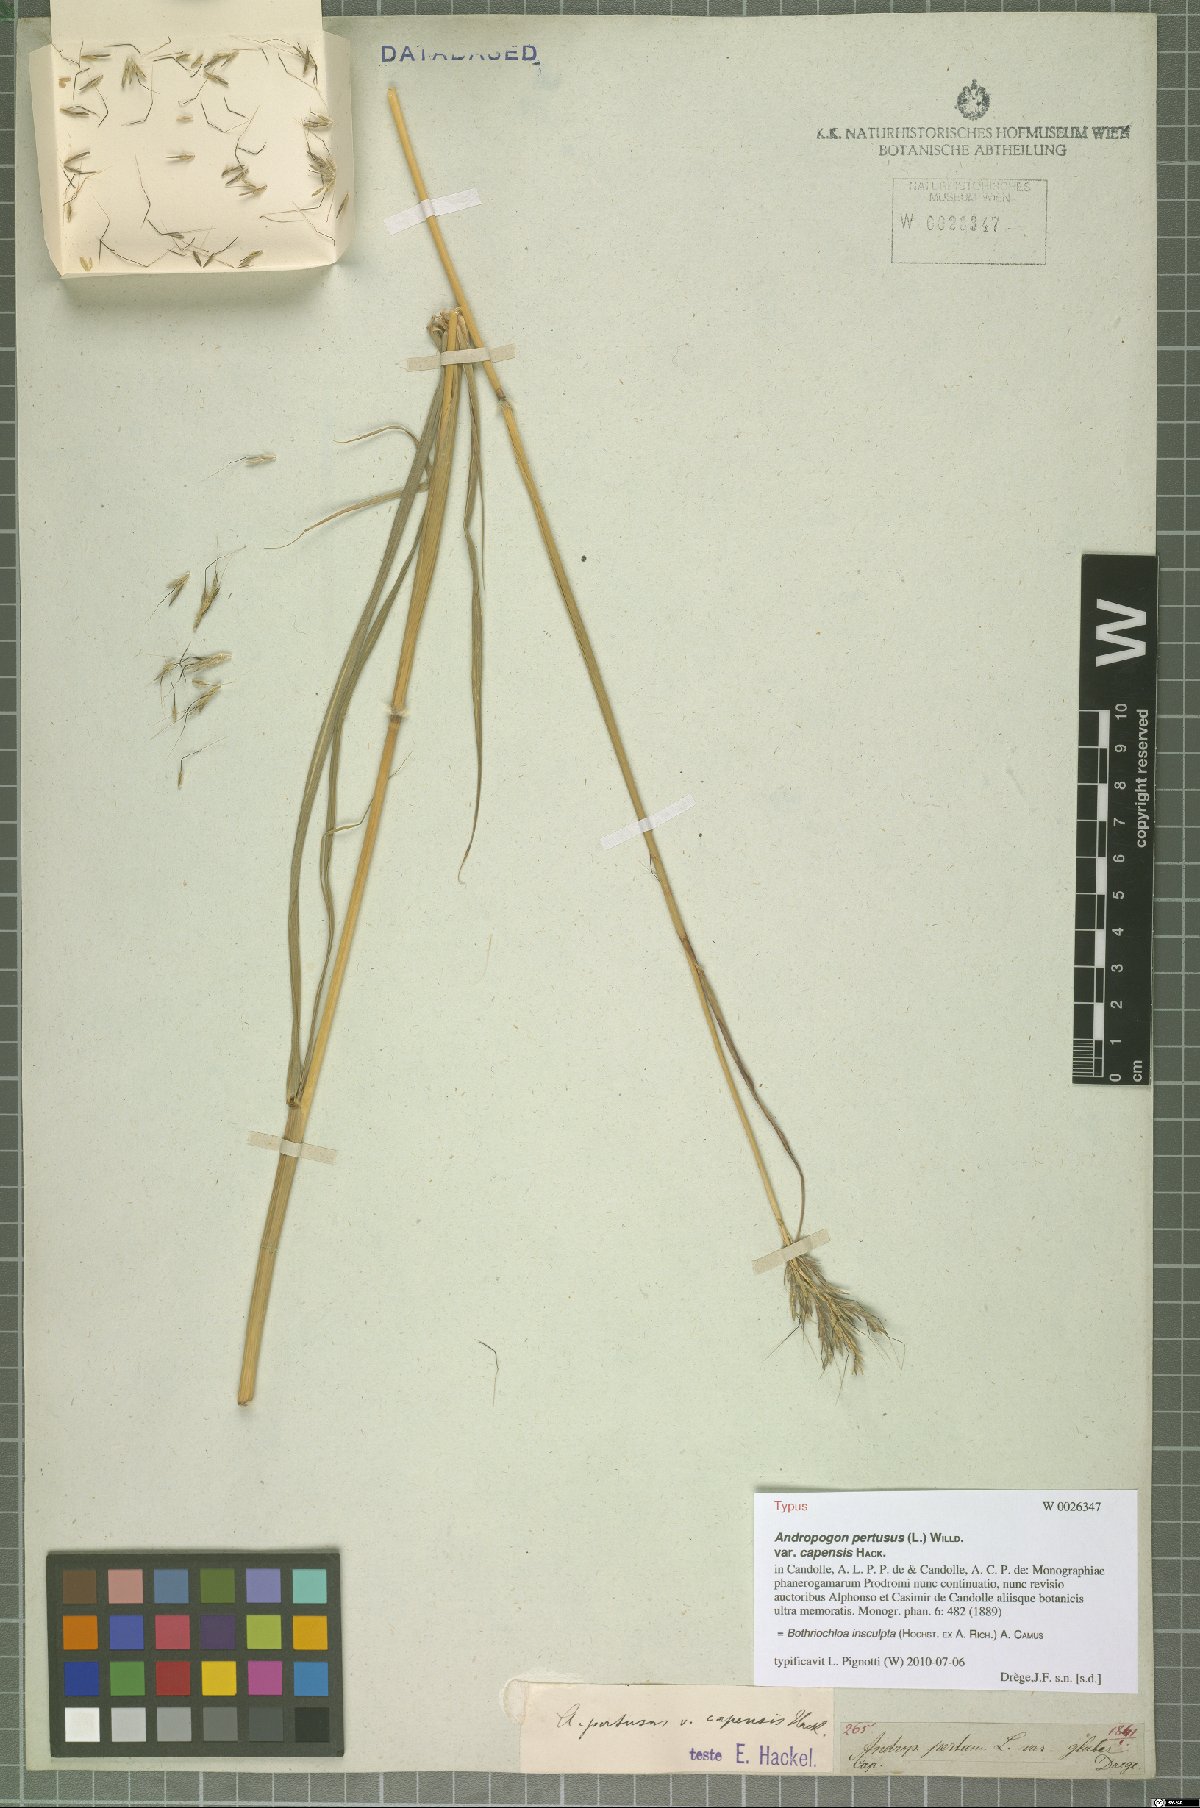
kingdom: Plantae
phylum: Tracheophyta
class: Liliopsida
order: Poales
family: Poaceae
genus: Bothriochloa
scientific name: Bothriochloa insculpta
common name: Creeping-bluegrass
